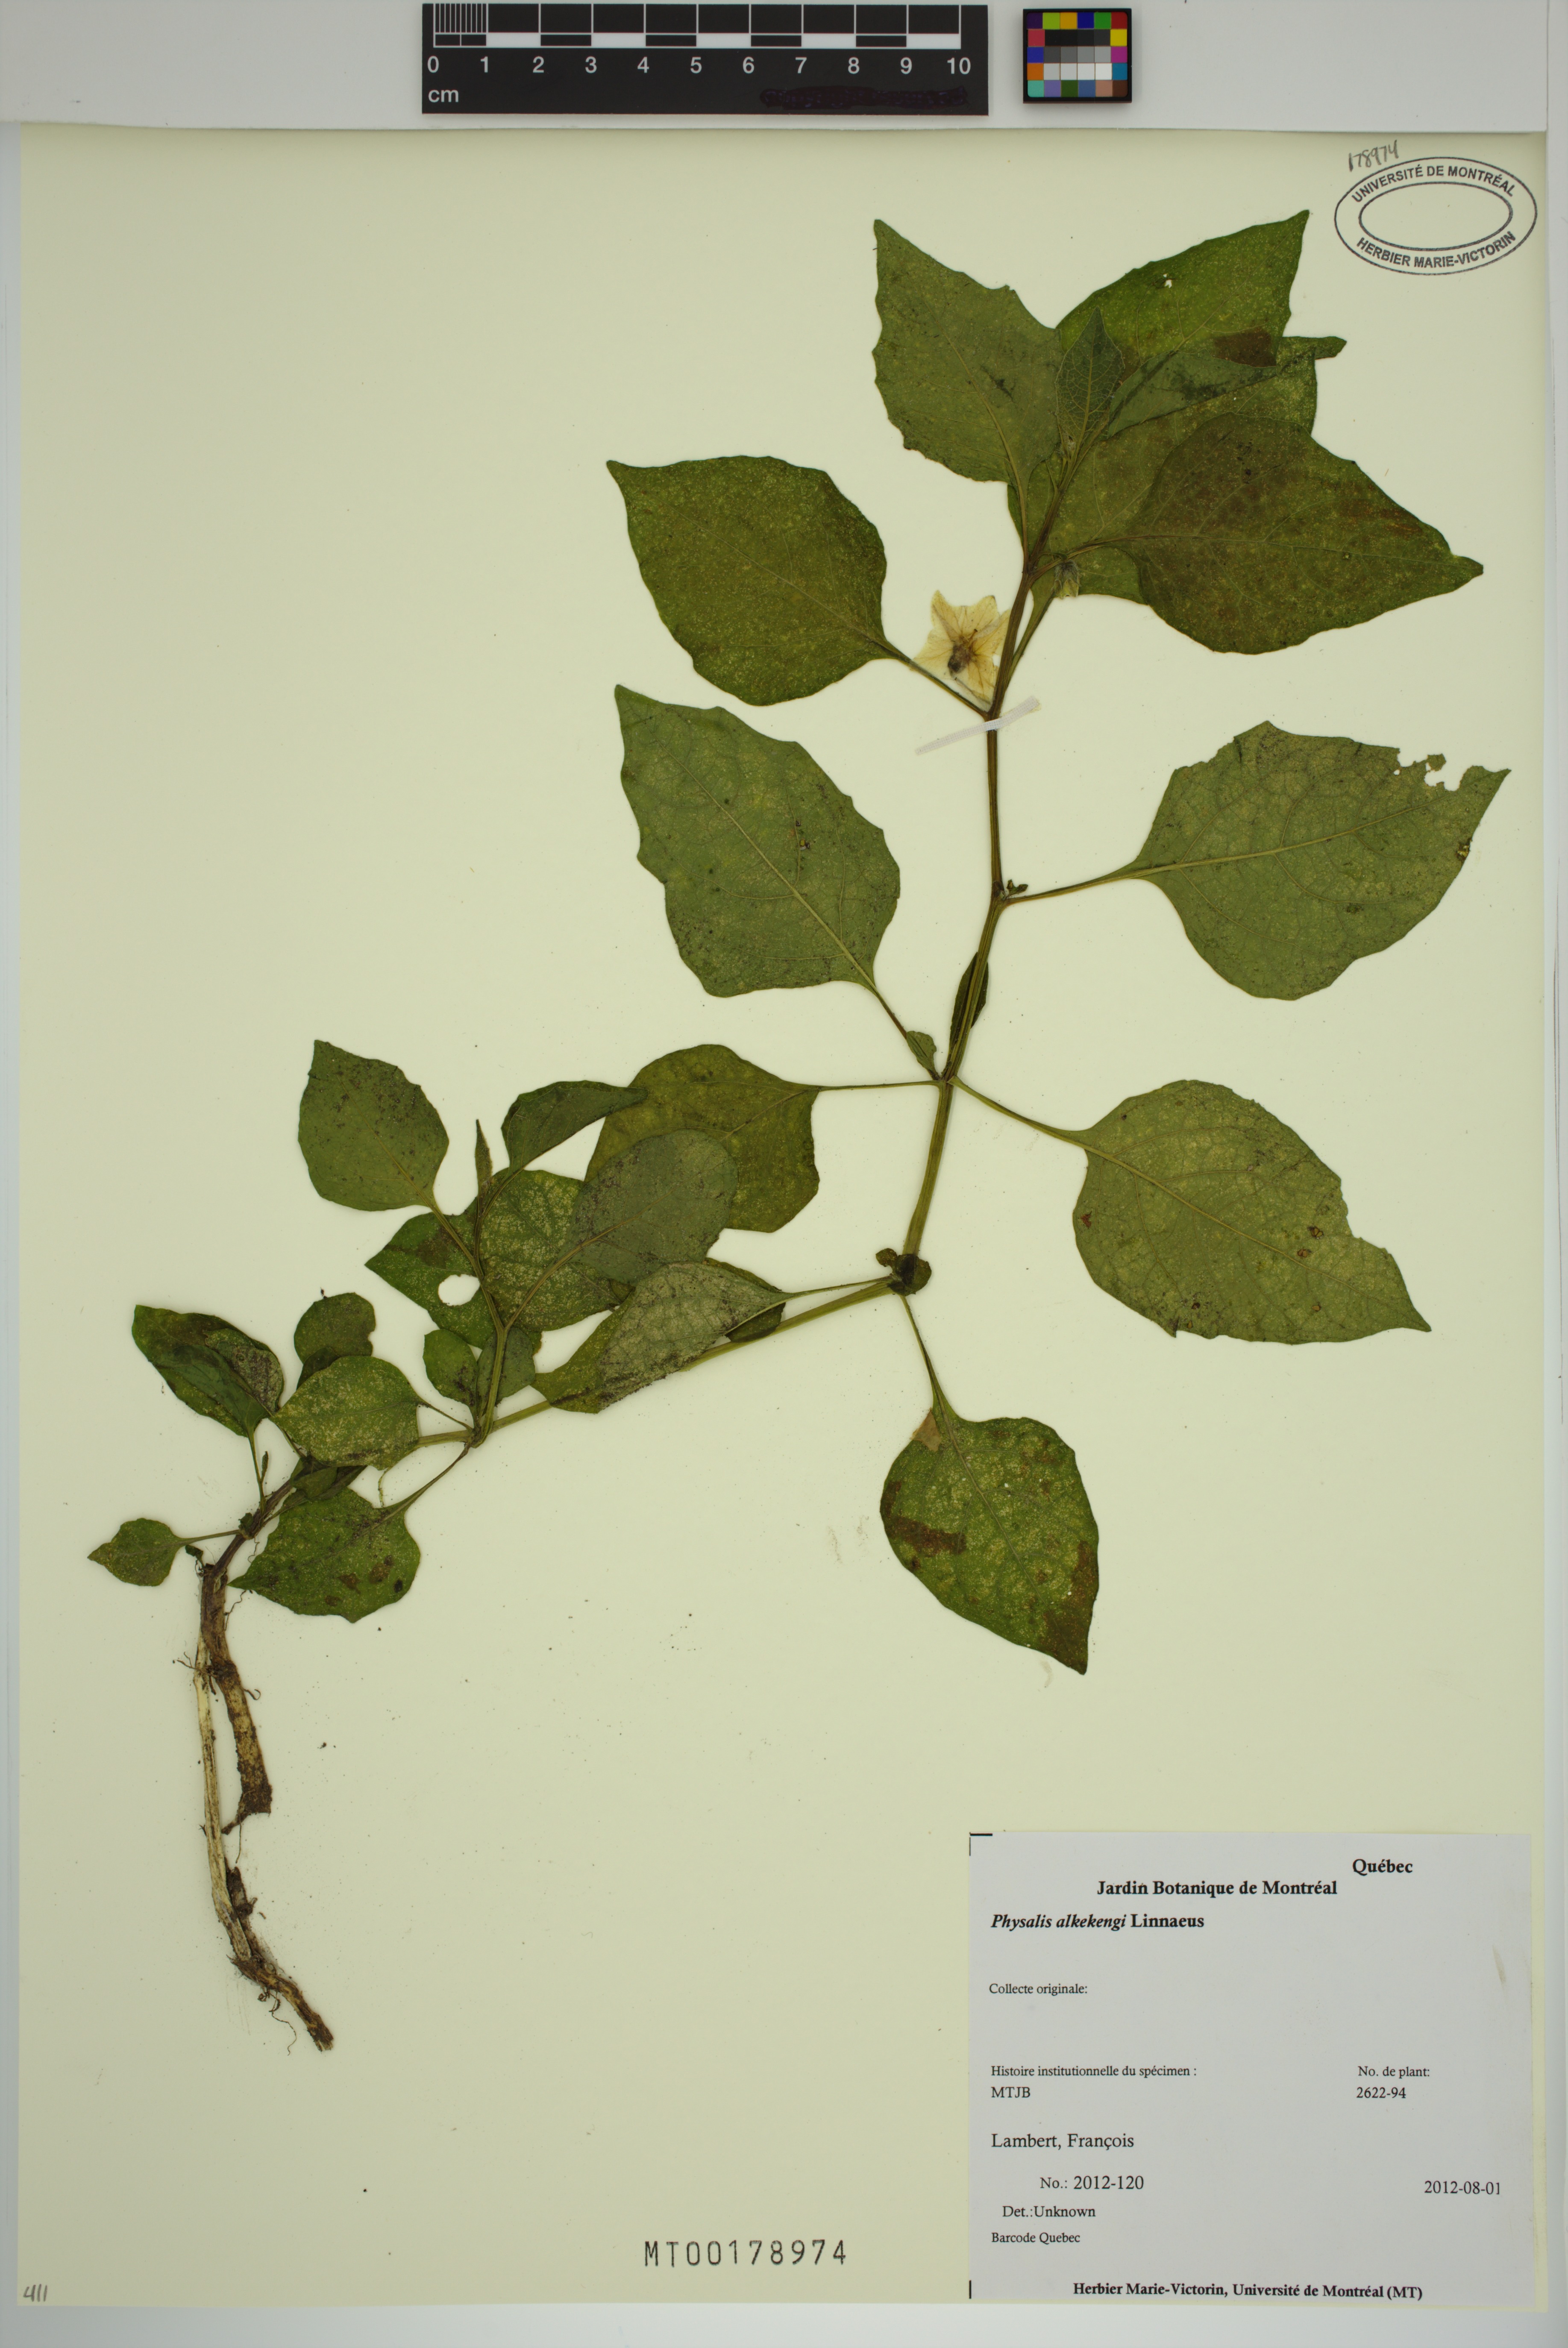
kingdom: Plantae
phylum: Tracheophyta
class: Magnoliopsida
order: Solanales
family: Solanaceae
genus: Alkekengi
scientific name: Alkekengi officinarum
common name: Japanese-lantern
